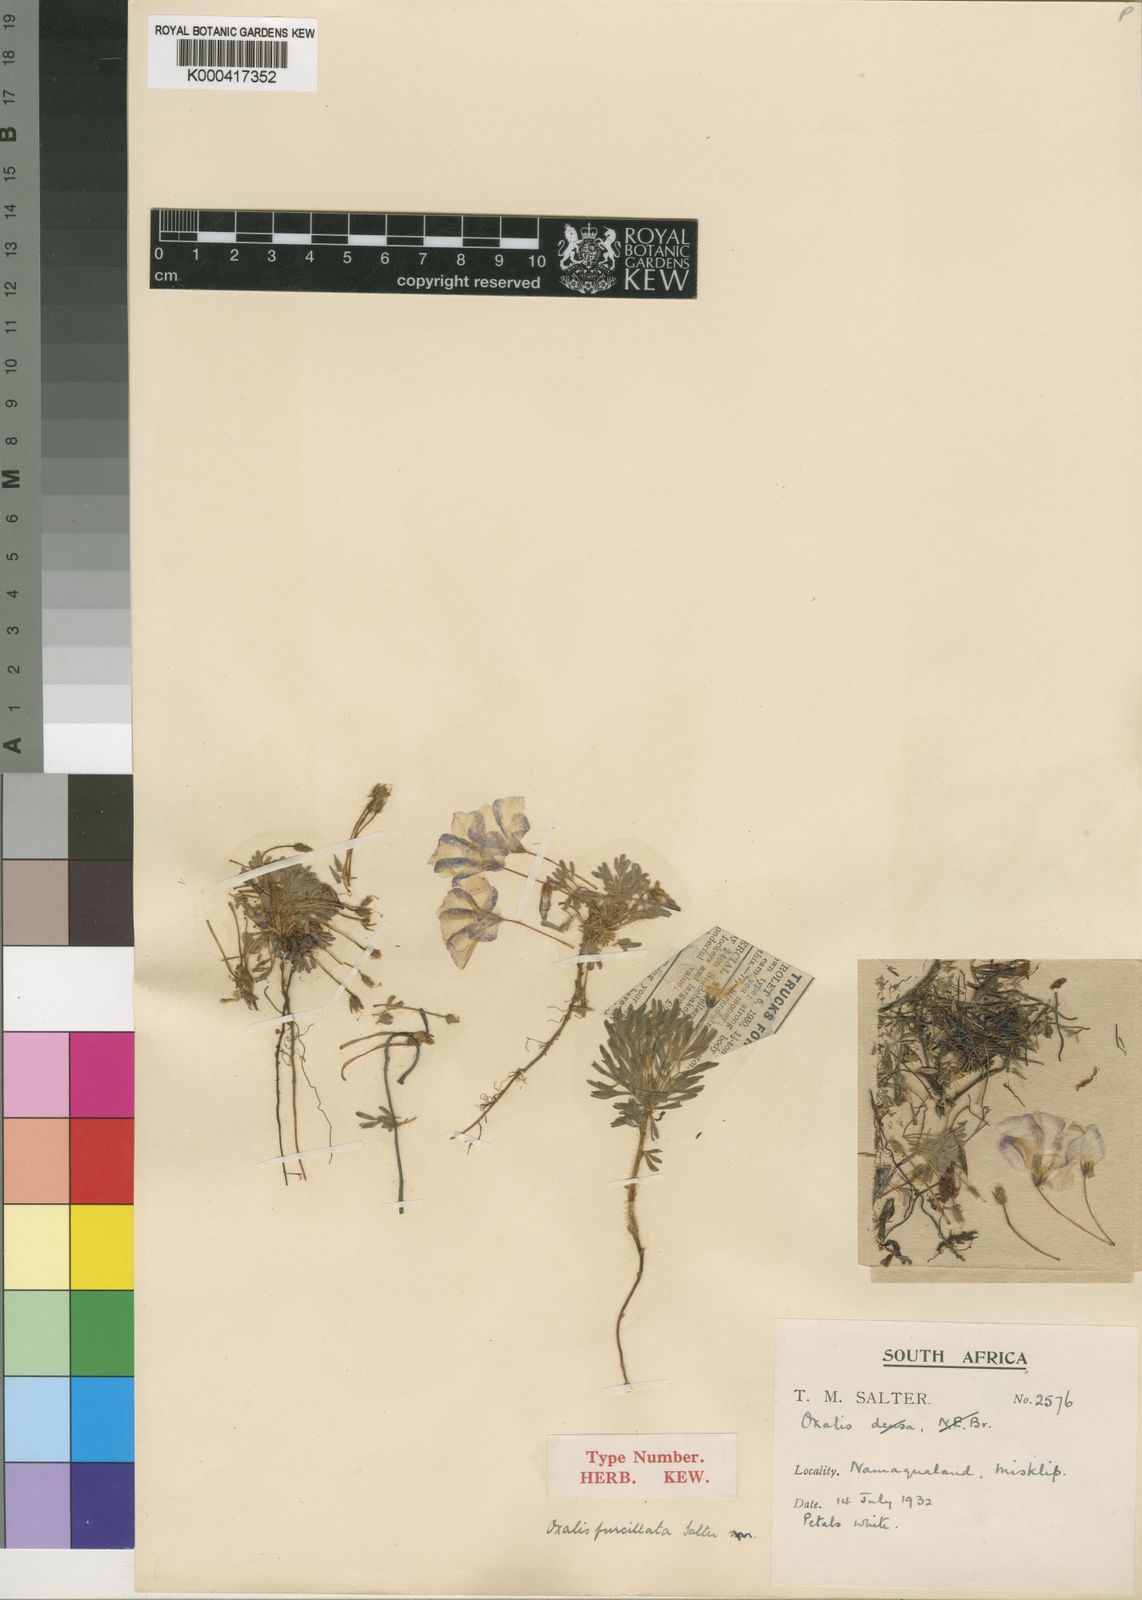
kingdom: Plantae
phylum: Tracheophyta
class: Magnoliopsida
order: Oxalidales
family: Oxalidaceae
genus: Oxalis
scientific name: Oxalis furcillata
